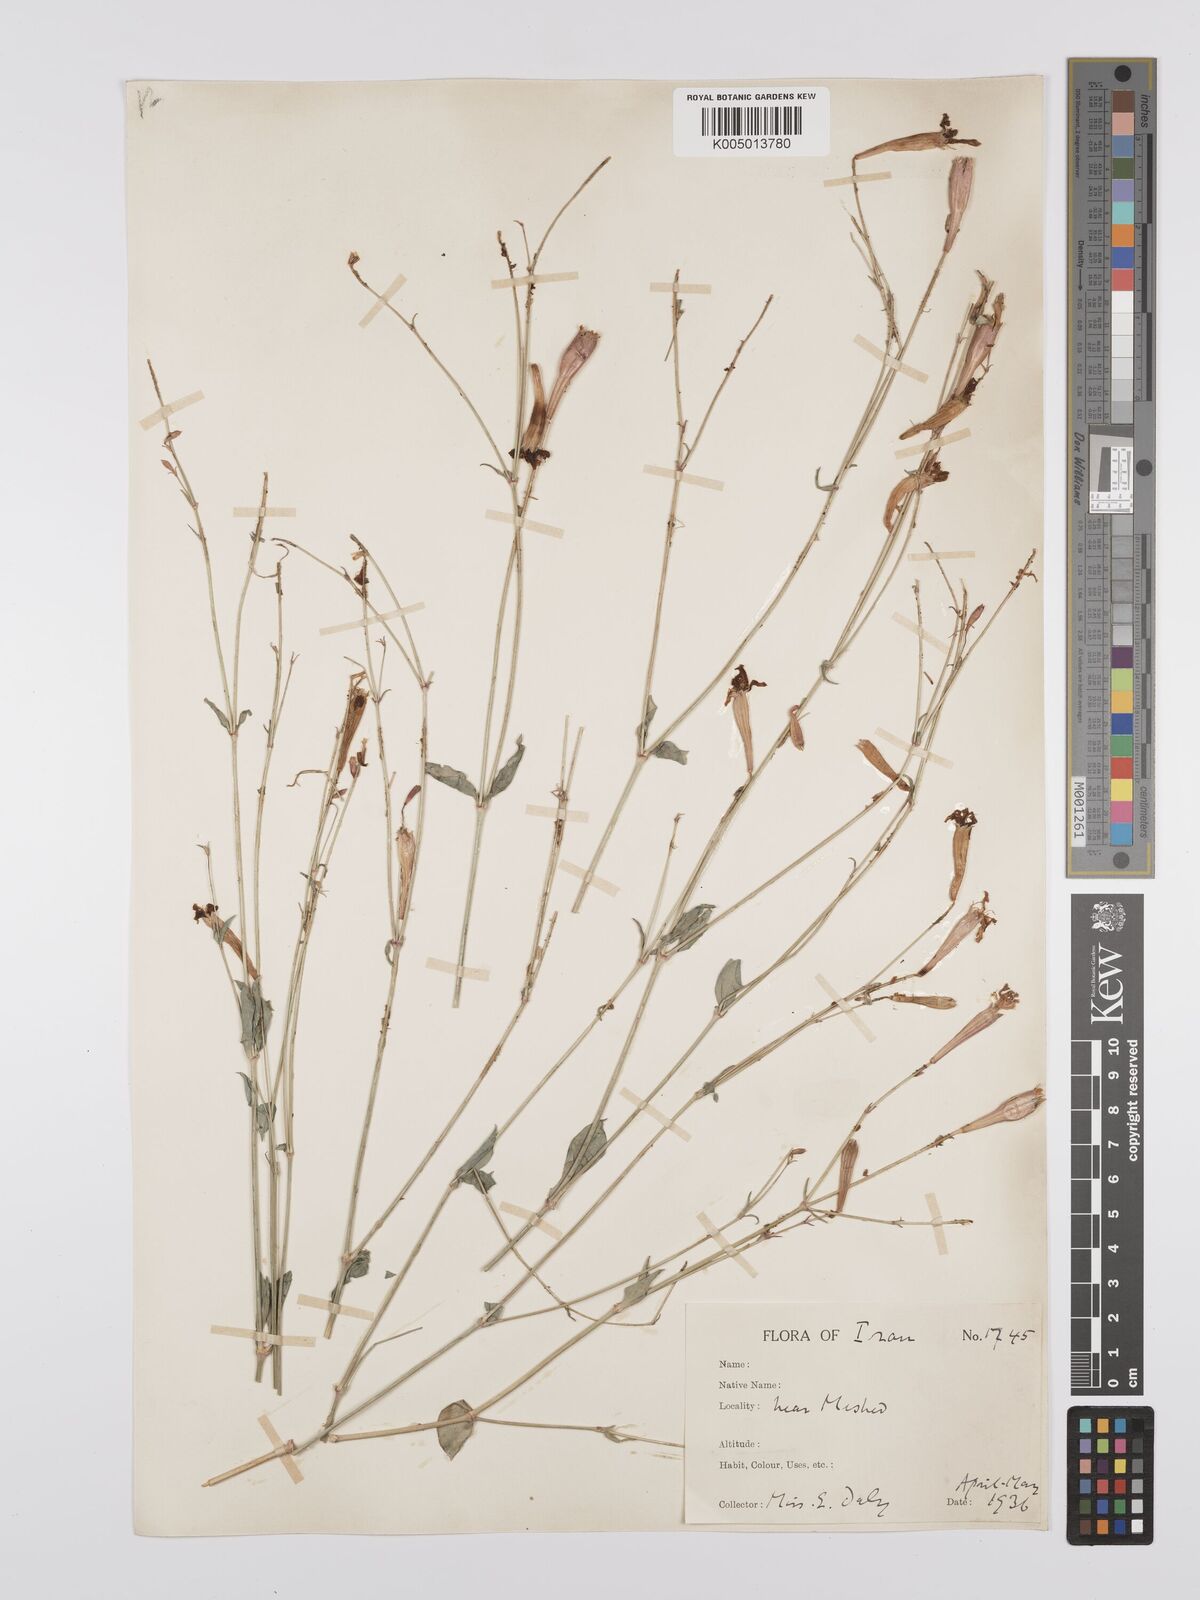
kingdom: Plantae
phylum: Tracheophyta
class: Magnoliopsida
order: Caryophyllales
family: Caryophyllaceae
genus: Silene
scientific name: Silene swertiifolia
